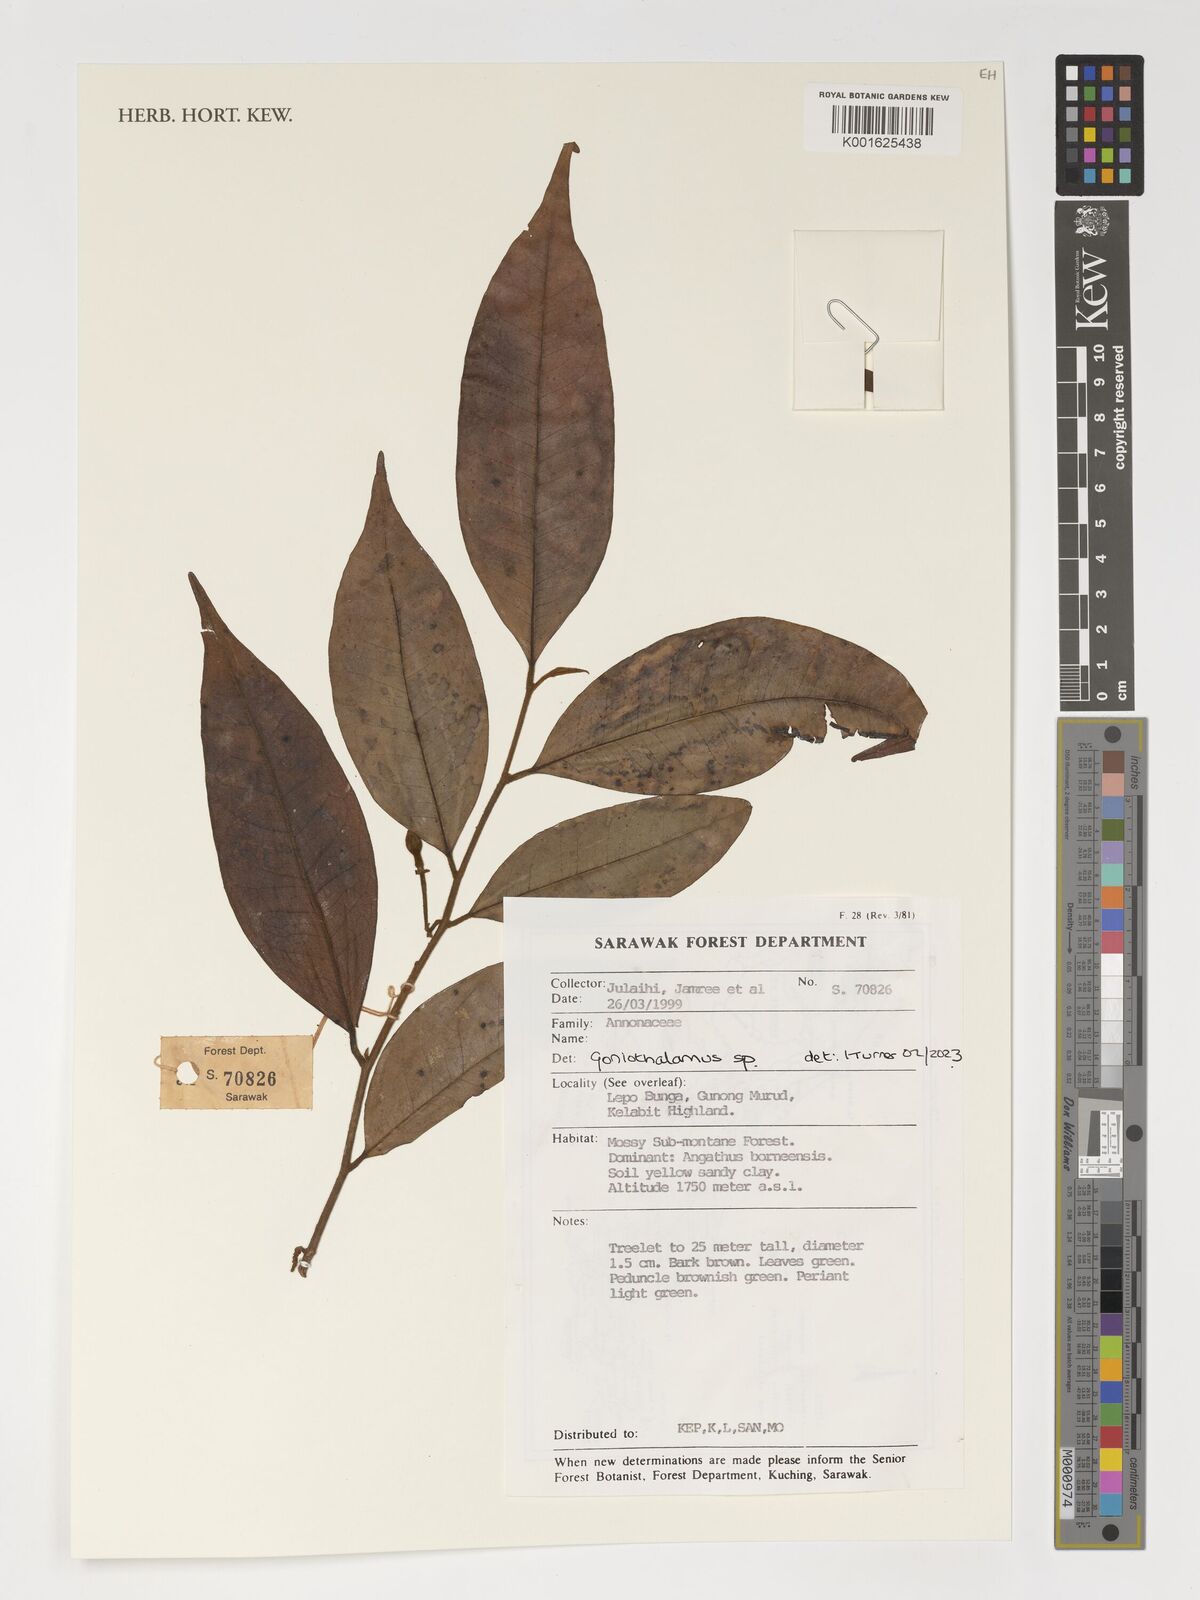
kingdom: Plantae
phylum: Tracheophyta
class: Magnoliopsida
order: Magnoliales
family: Annonaceae
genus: Goniothalamus
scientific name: Goniothalamus
